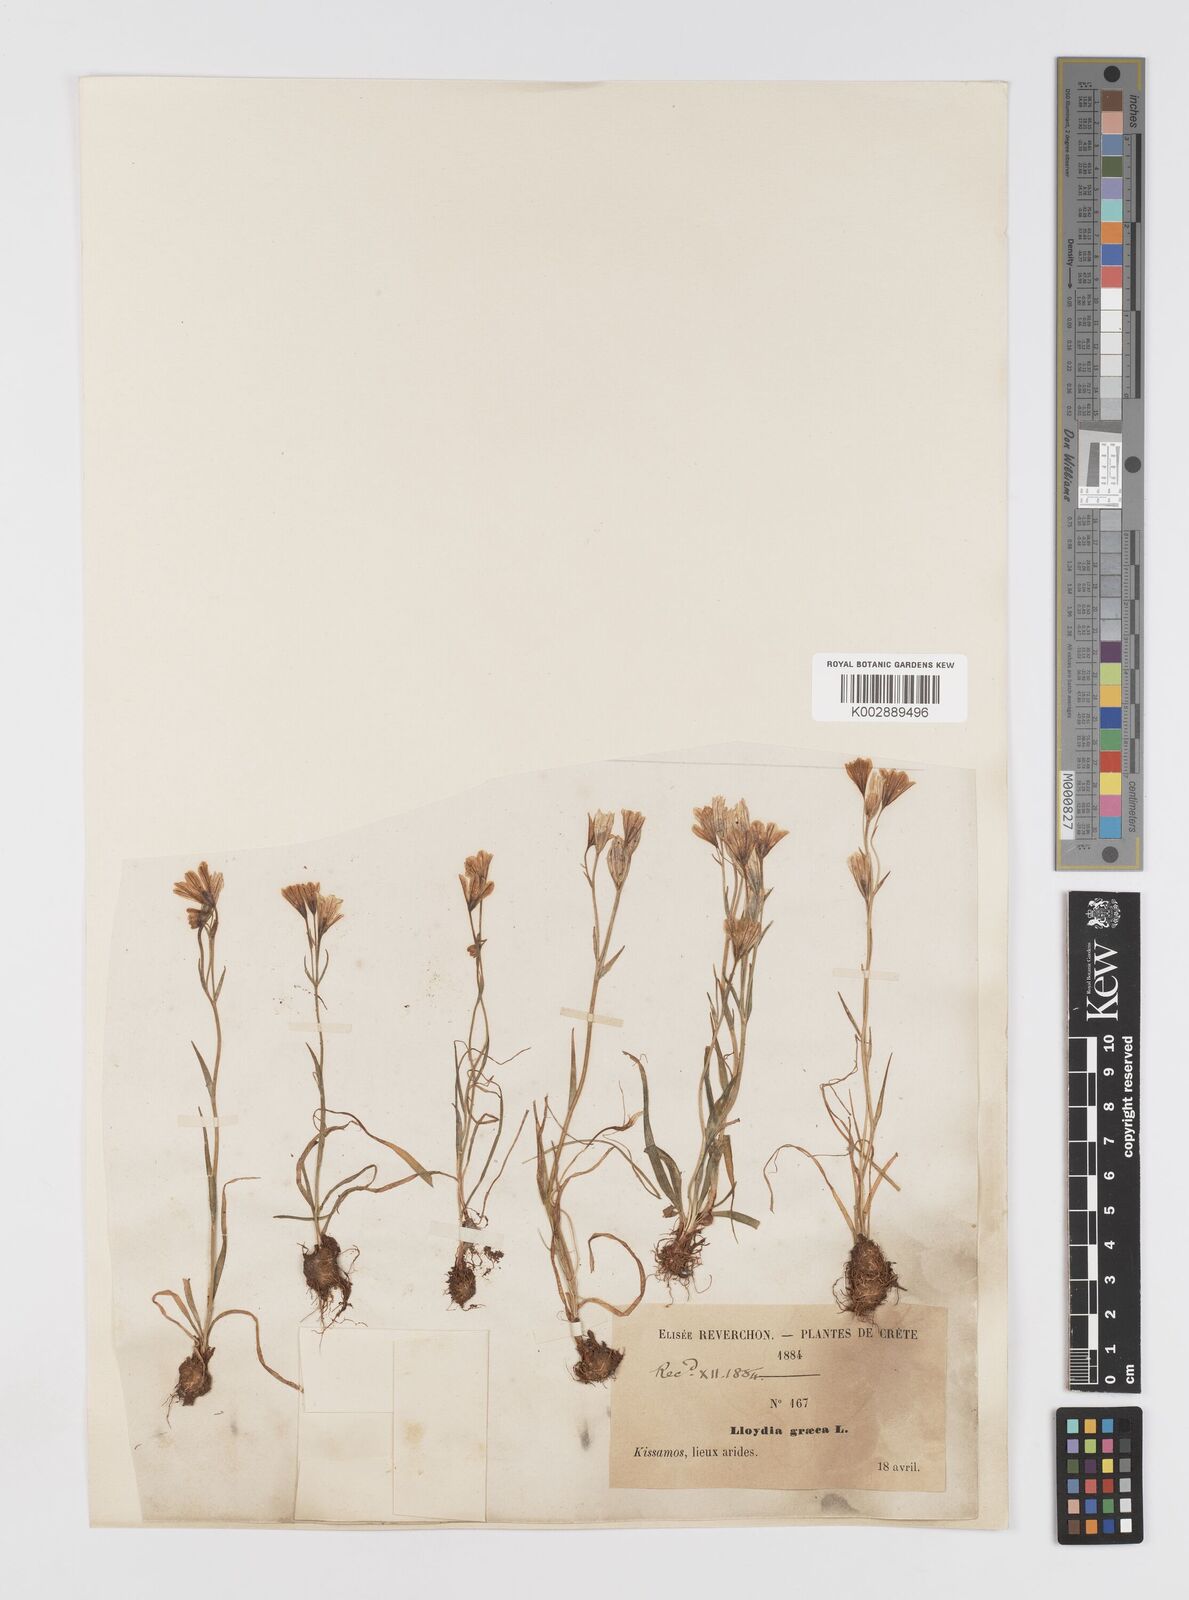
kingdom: Plantae
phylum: Tracheophyta
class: Liliopsida
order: Liliales
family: Liliaceae
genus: Gagea
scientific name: Gagea graeca
